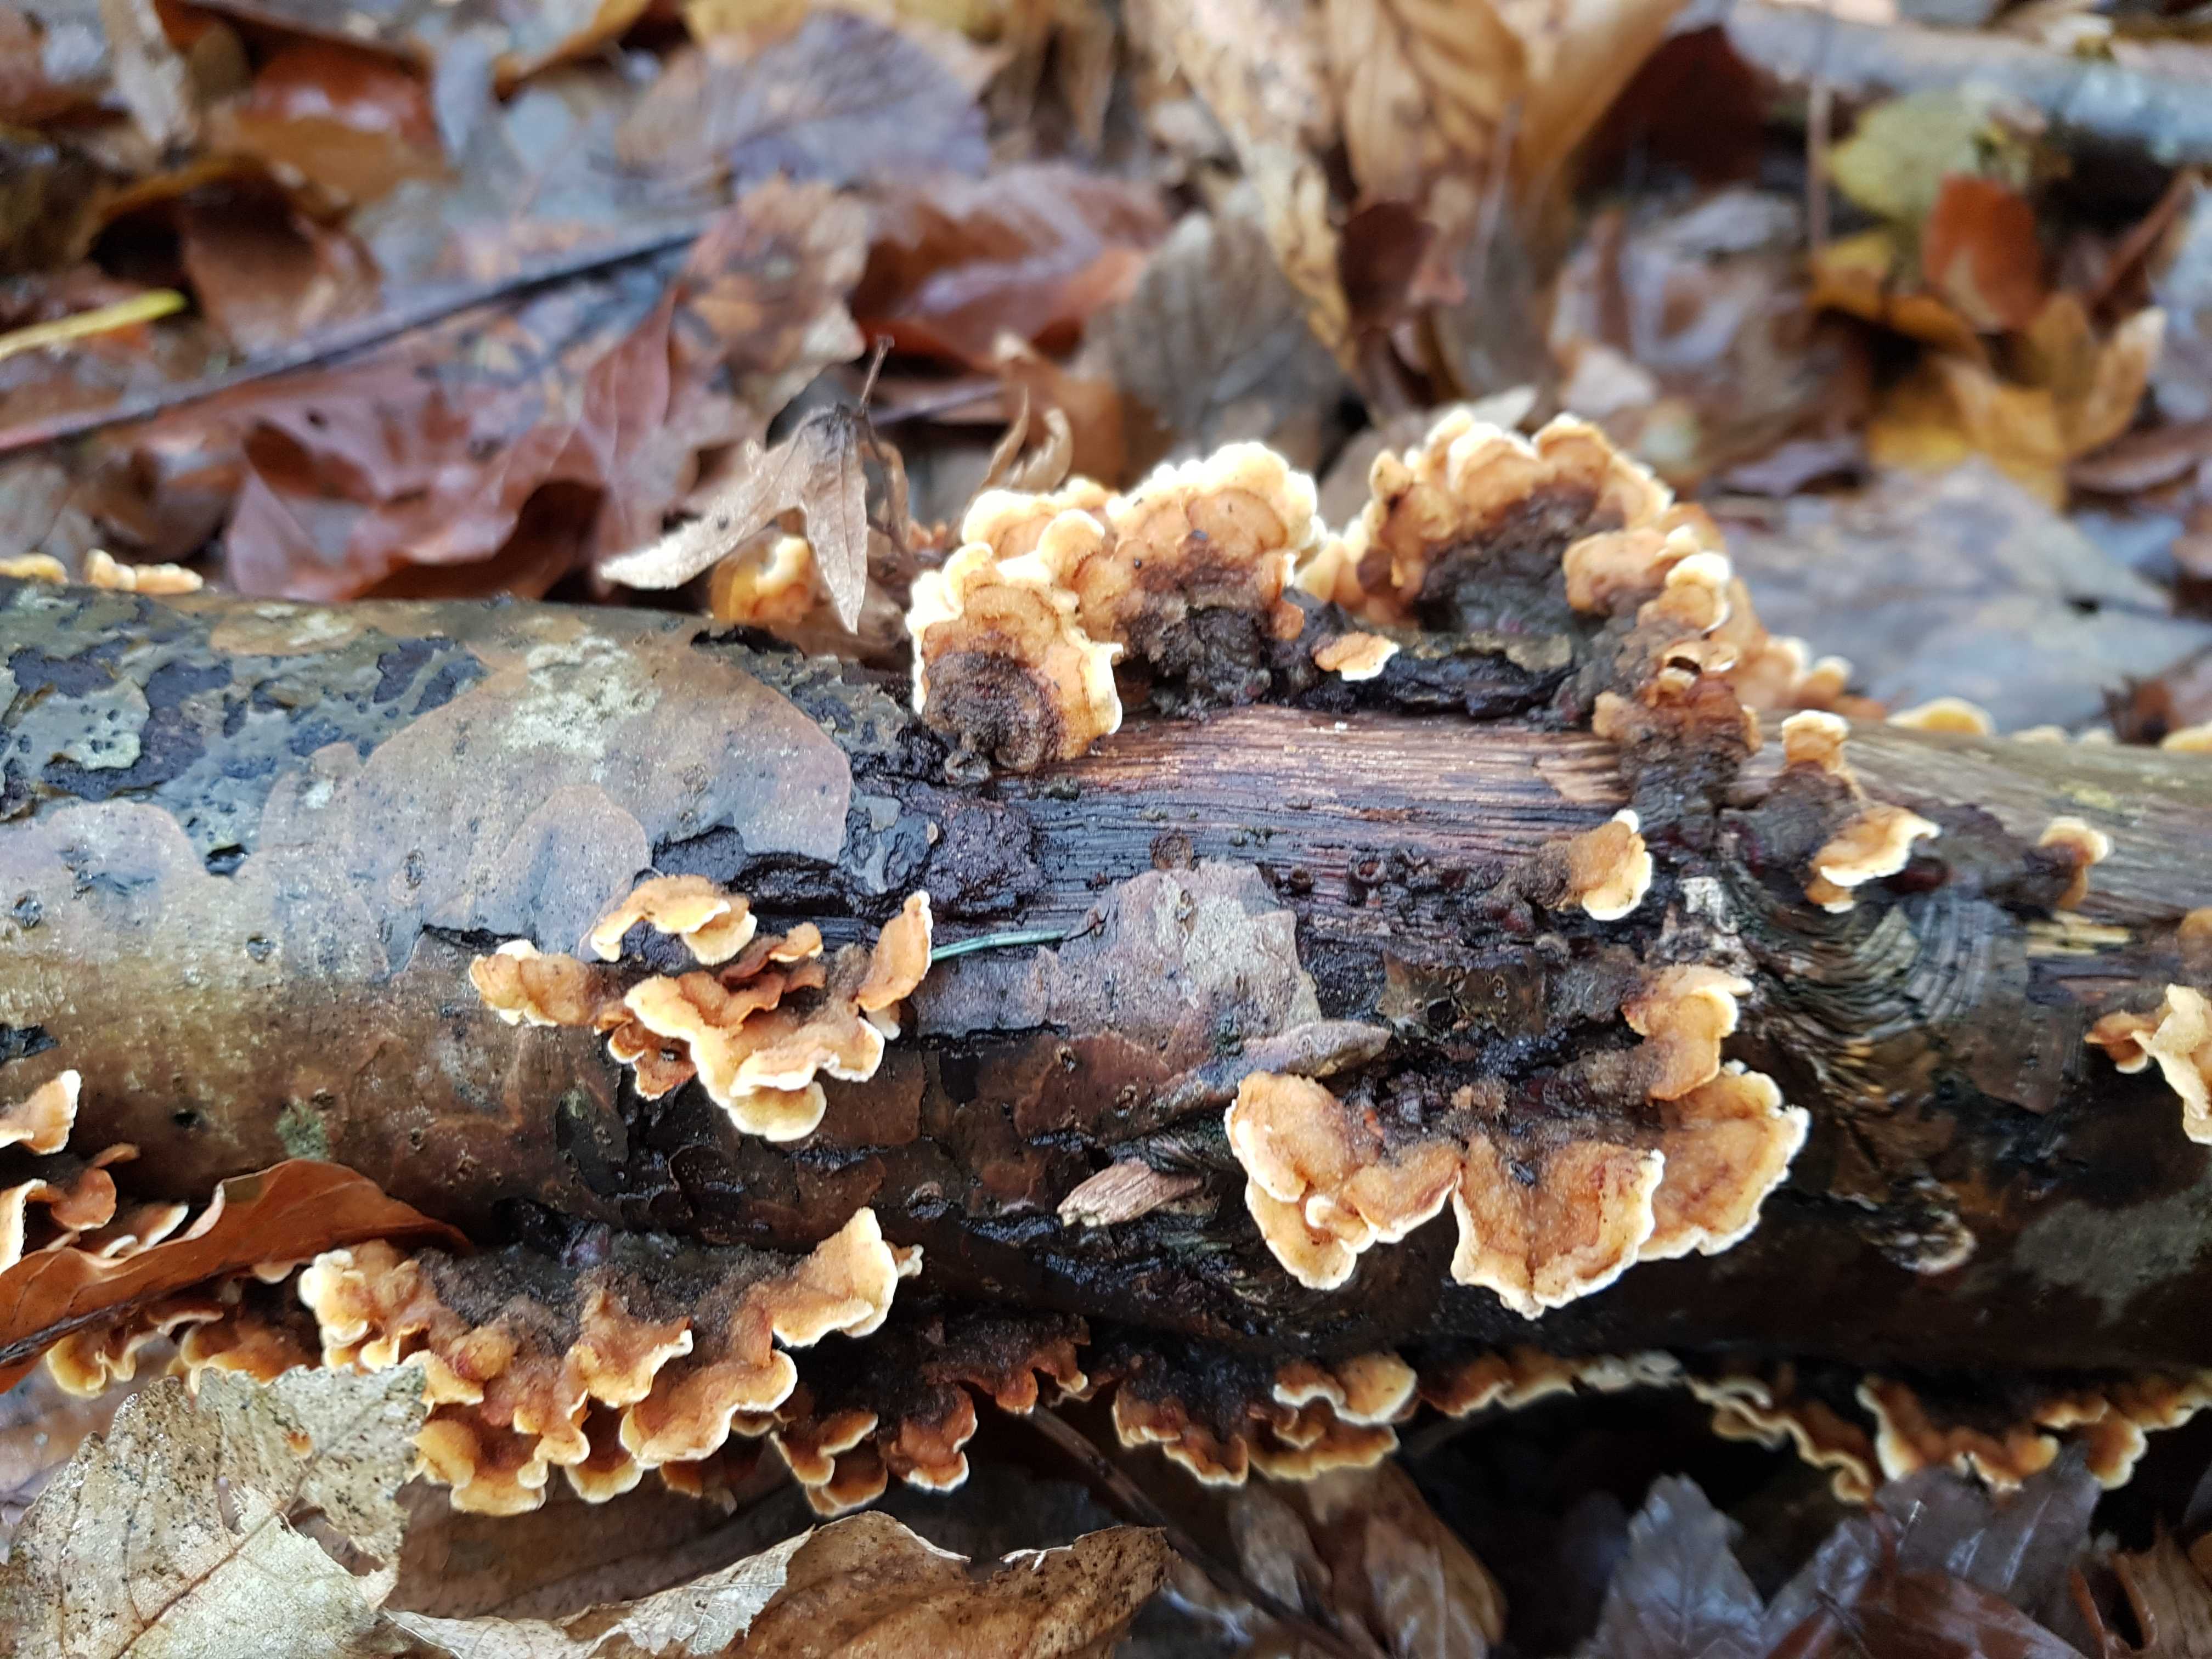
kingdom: Fungi
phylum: Basidiomycota
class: Agaricomycetes
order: Russulales
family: Stereaceae
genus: Stereum
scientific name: Stereum hirsutum
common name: håret lædersvamp
